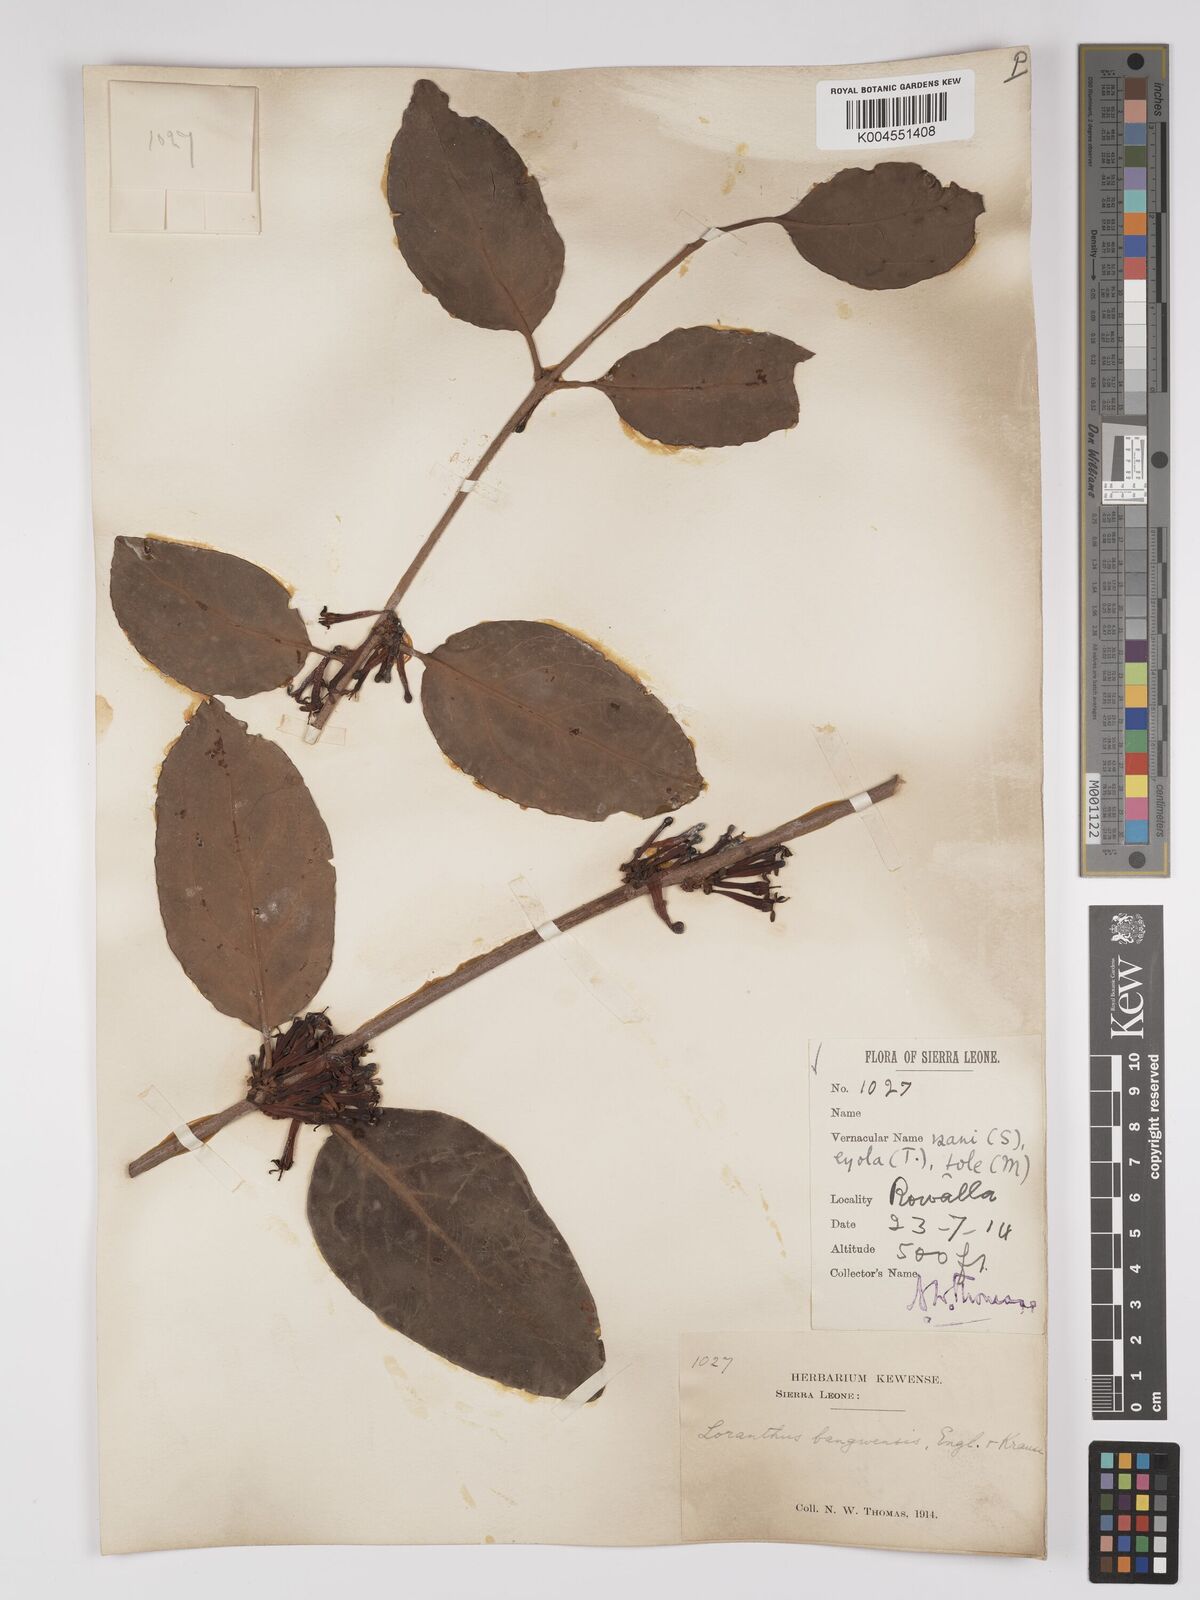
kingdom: Plantae
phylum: Tracheophyta
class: Magnoliopsida
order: Santalales
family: Loranthaceae
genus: Tapinanthus
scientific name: Tapinanthus bangwensis
